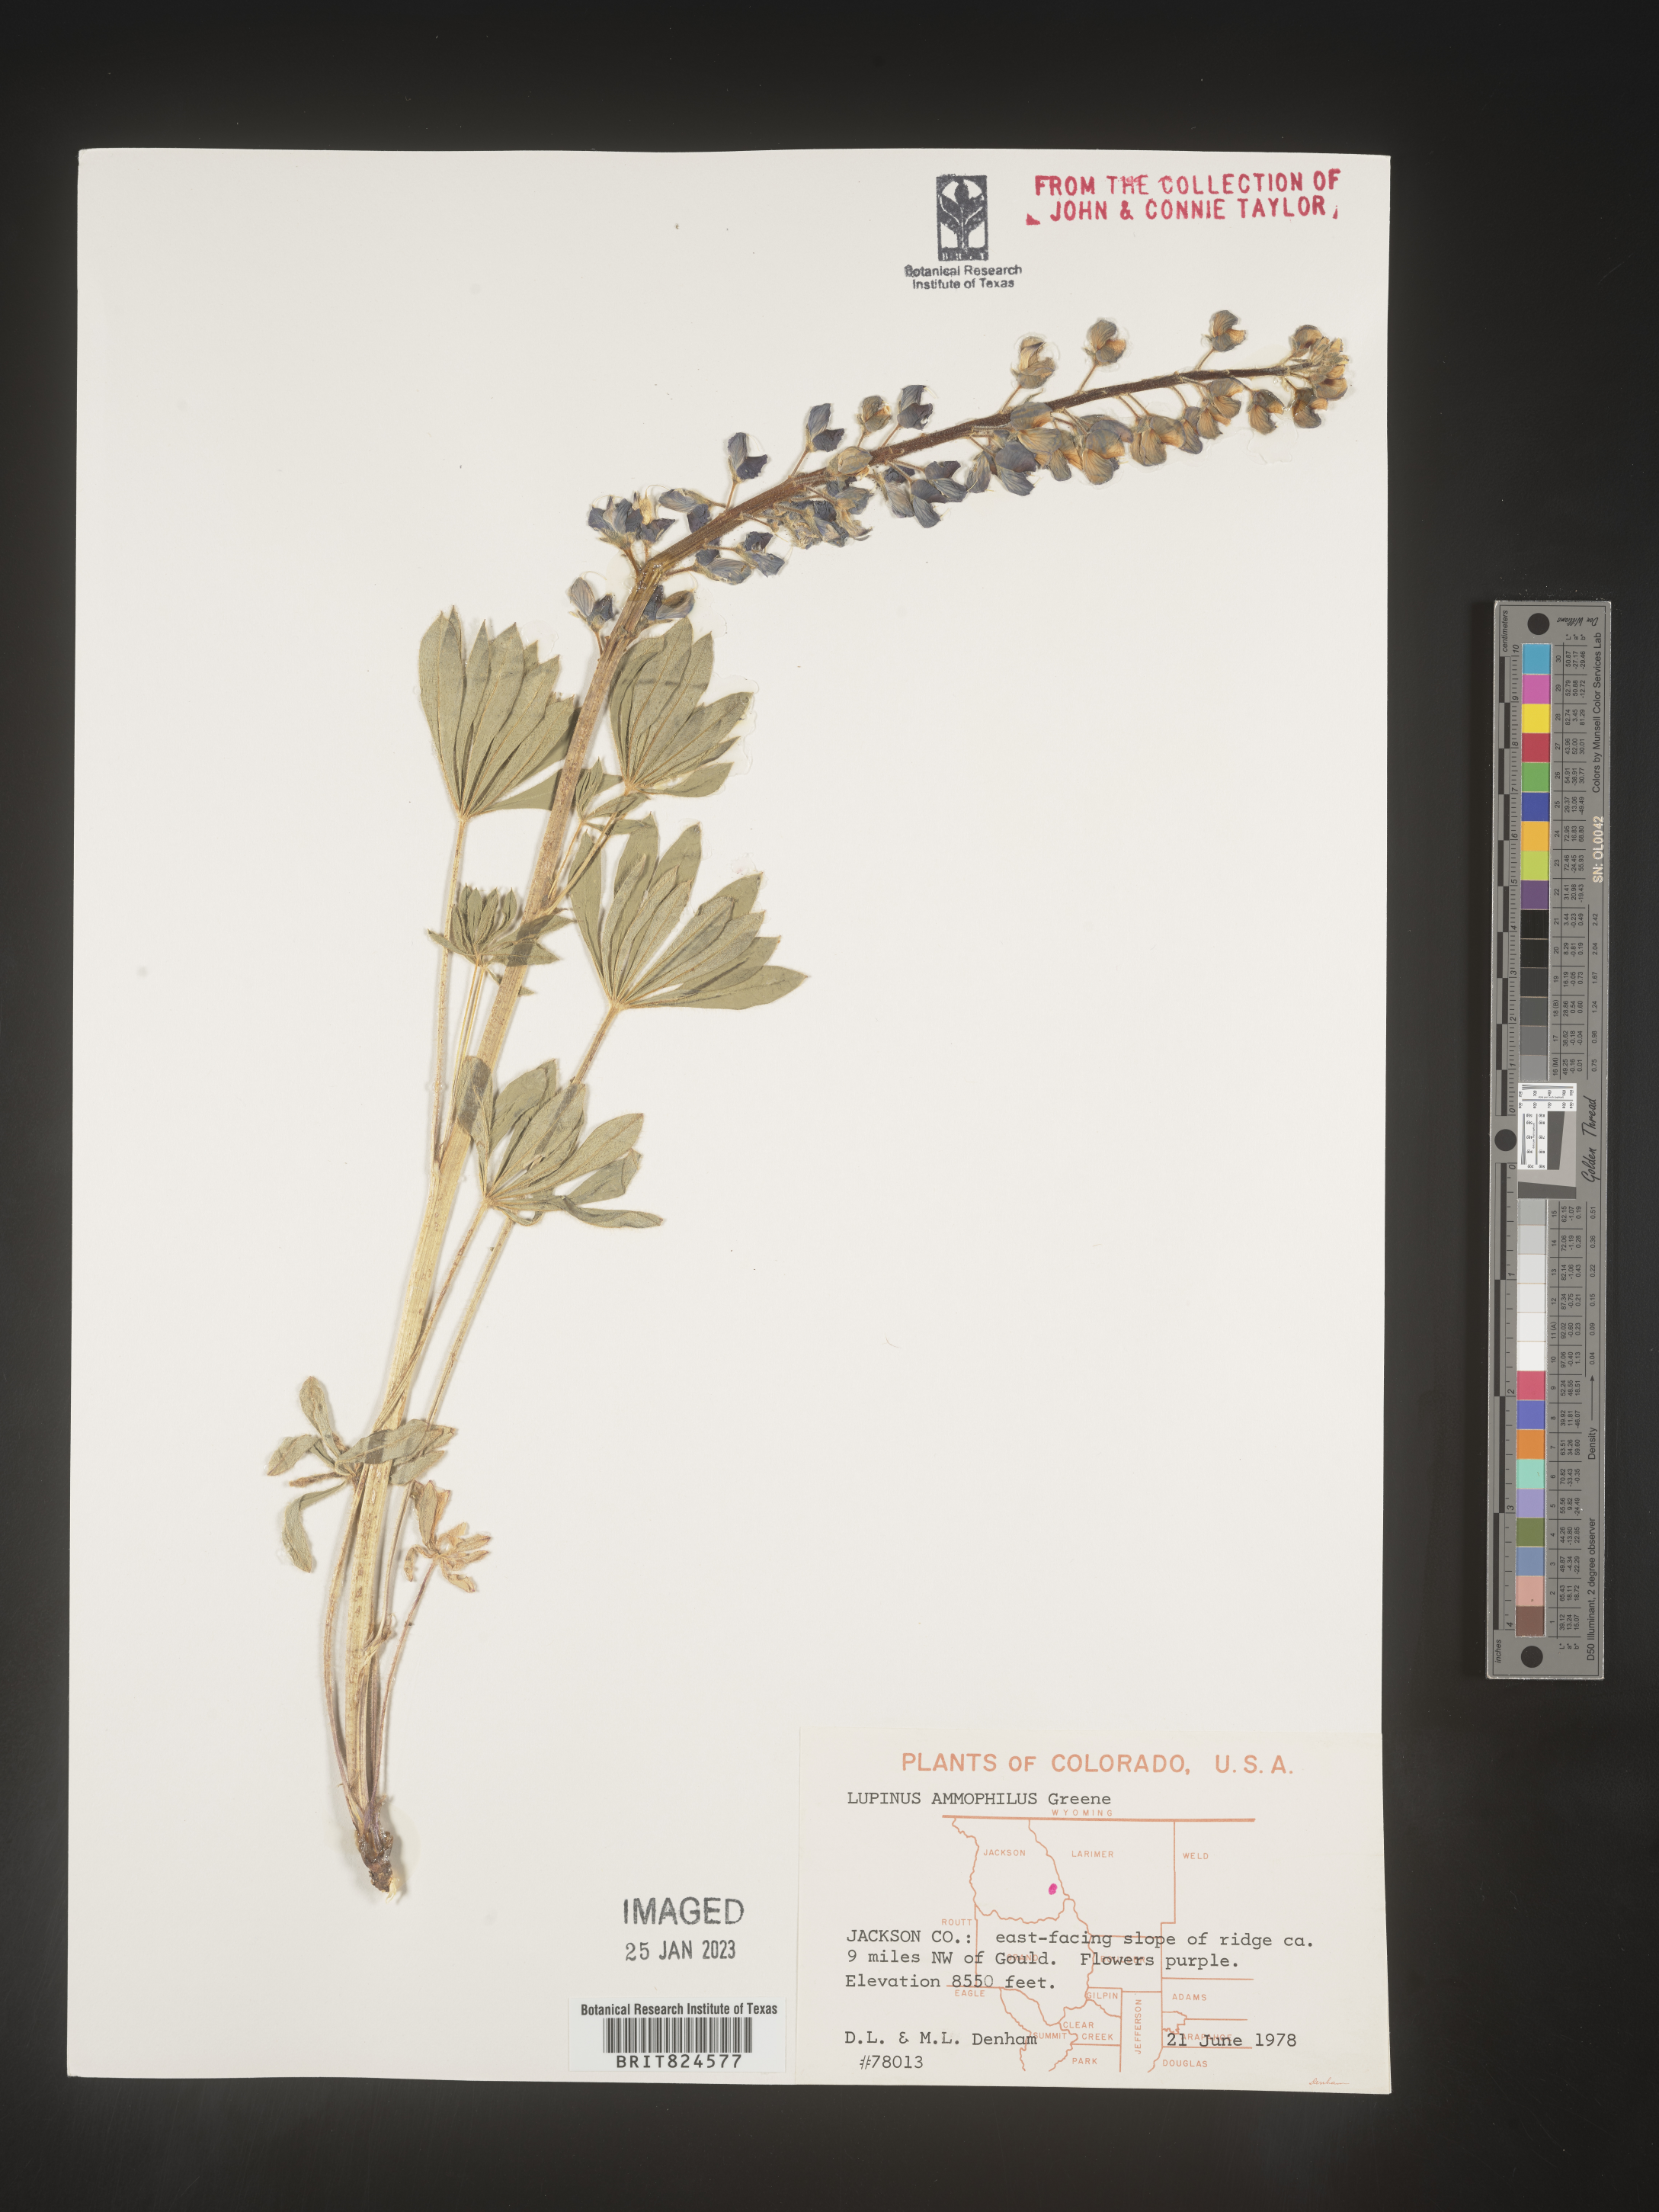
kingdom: Plantae
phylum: Tracheophyta
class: Magnoliopsida
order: Fabales
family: Fabaceae
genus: Lupinus
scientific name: Lupinus
